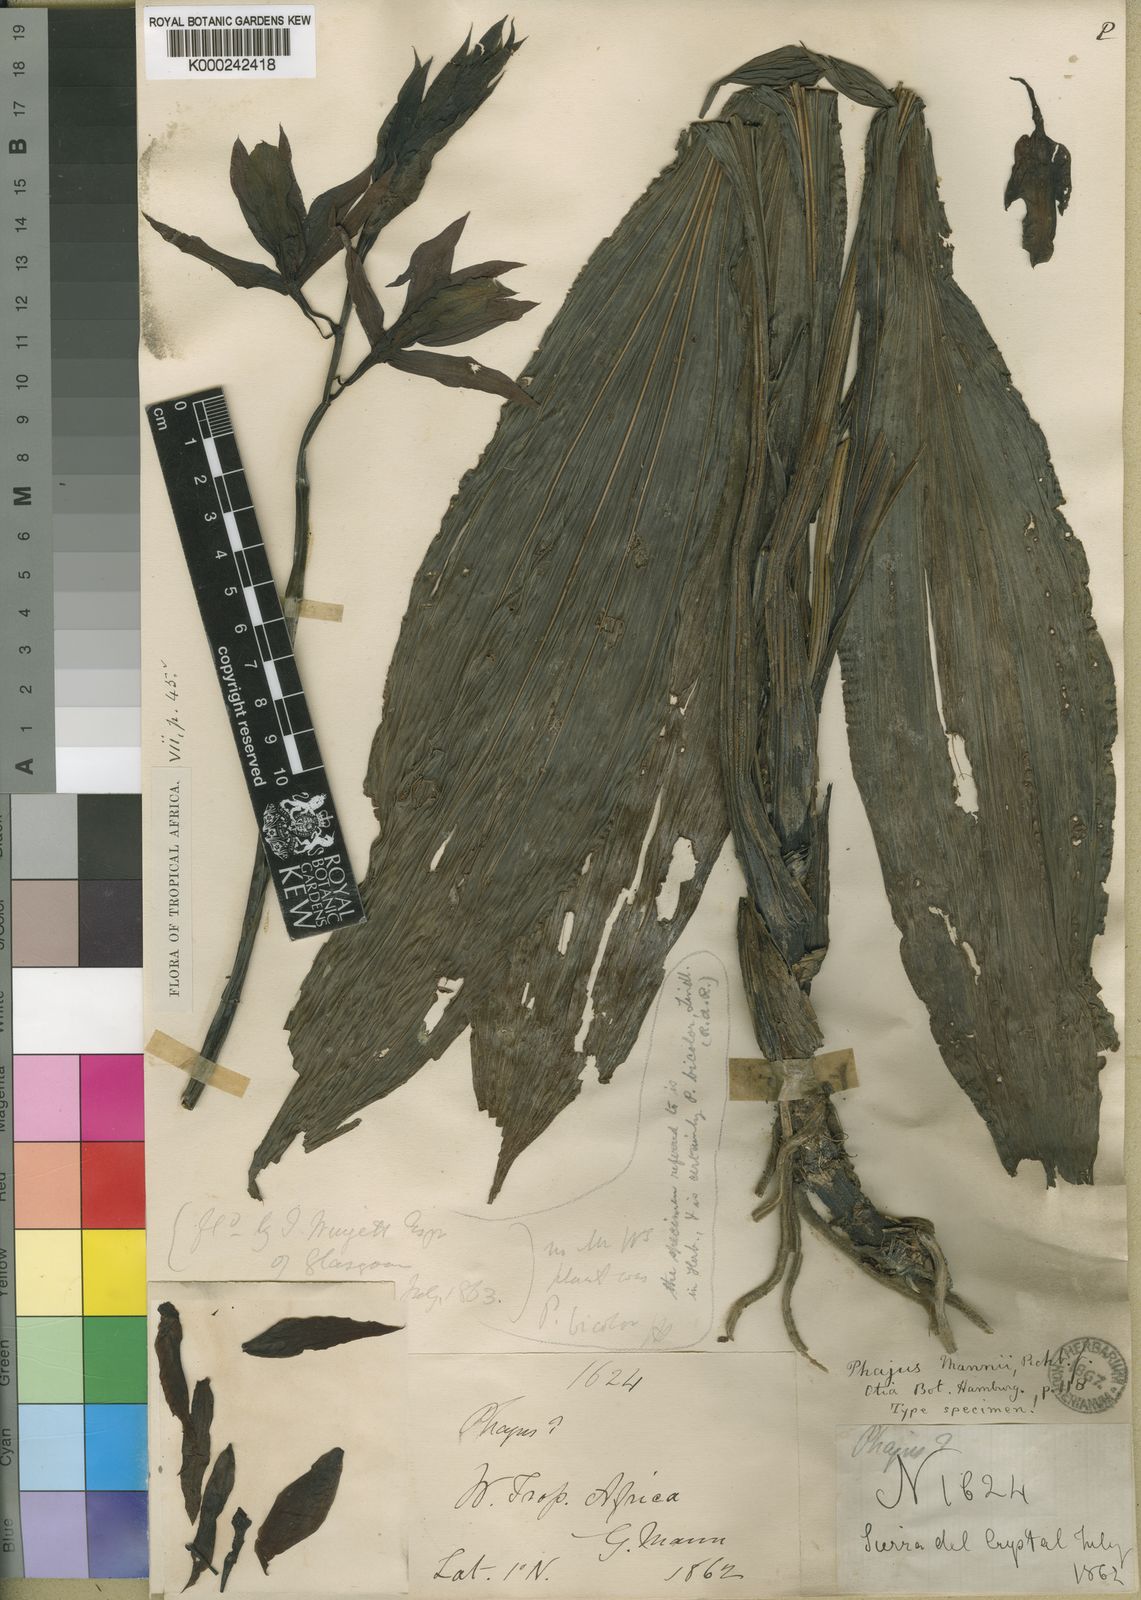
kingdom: Plantae
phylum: Tracheophyta
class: Liliopsida
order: Asparagales
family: Orchidaceae
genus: Calanthe
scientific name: Calanthe gustavii
